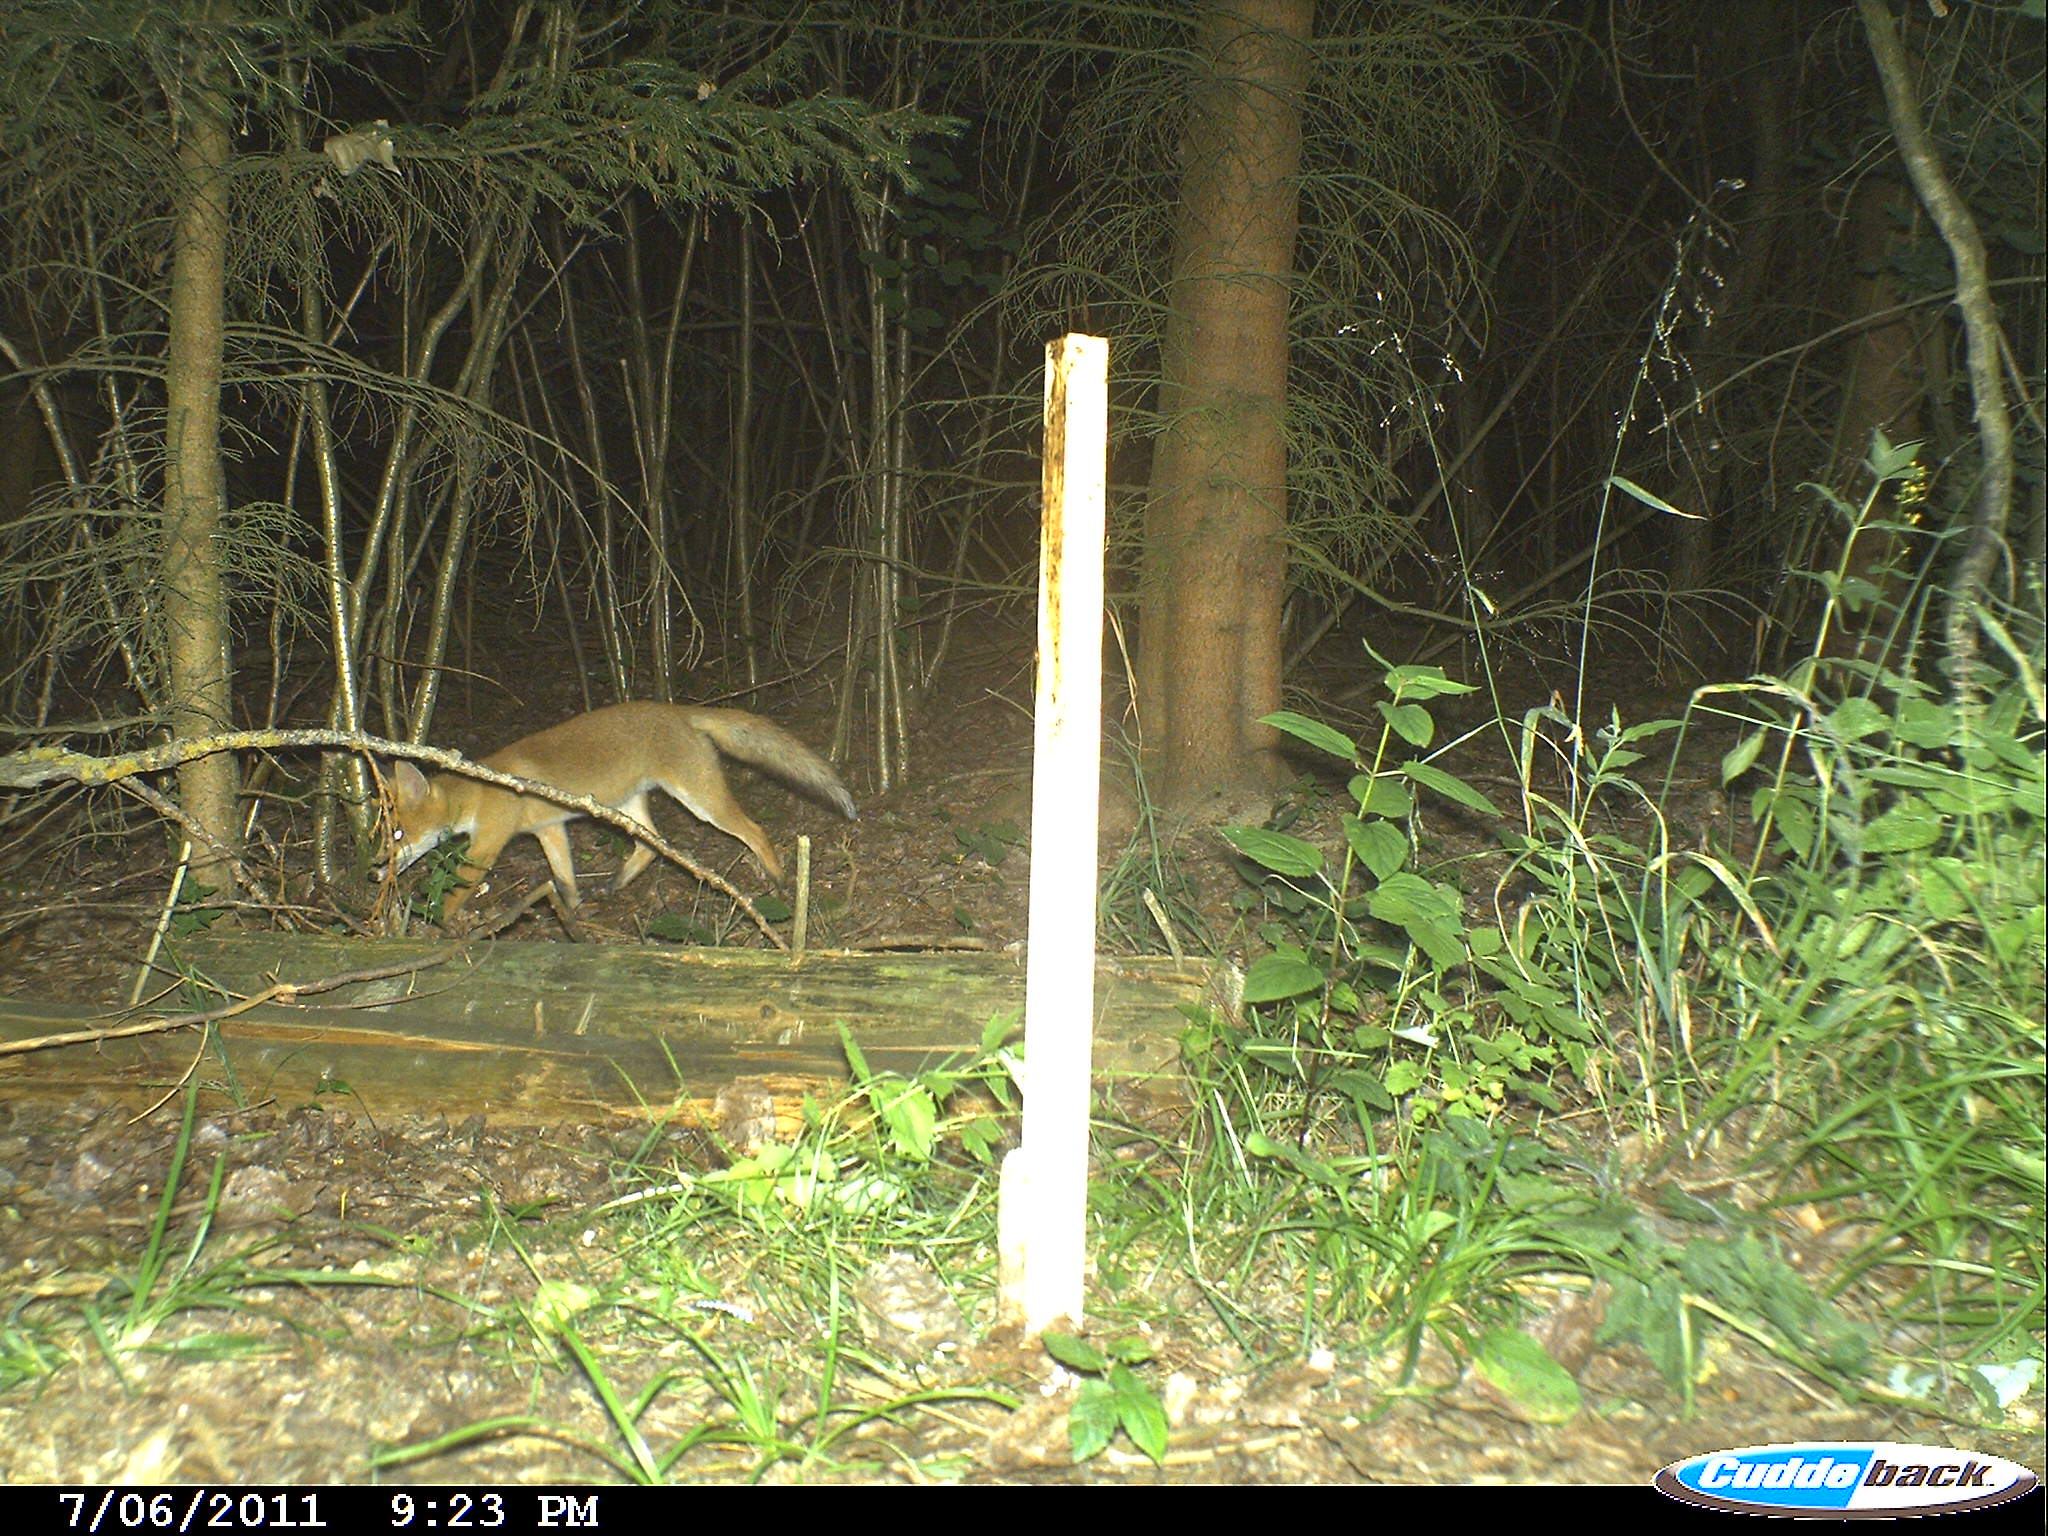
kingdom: Animalia
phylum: Chordata
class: Mammalia
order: Carnivora
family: Canidae
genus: Vulpes
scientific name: Vulpes vulpes
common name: Red fox
